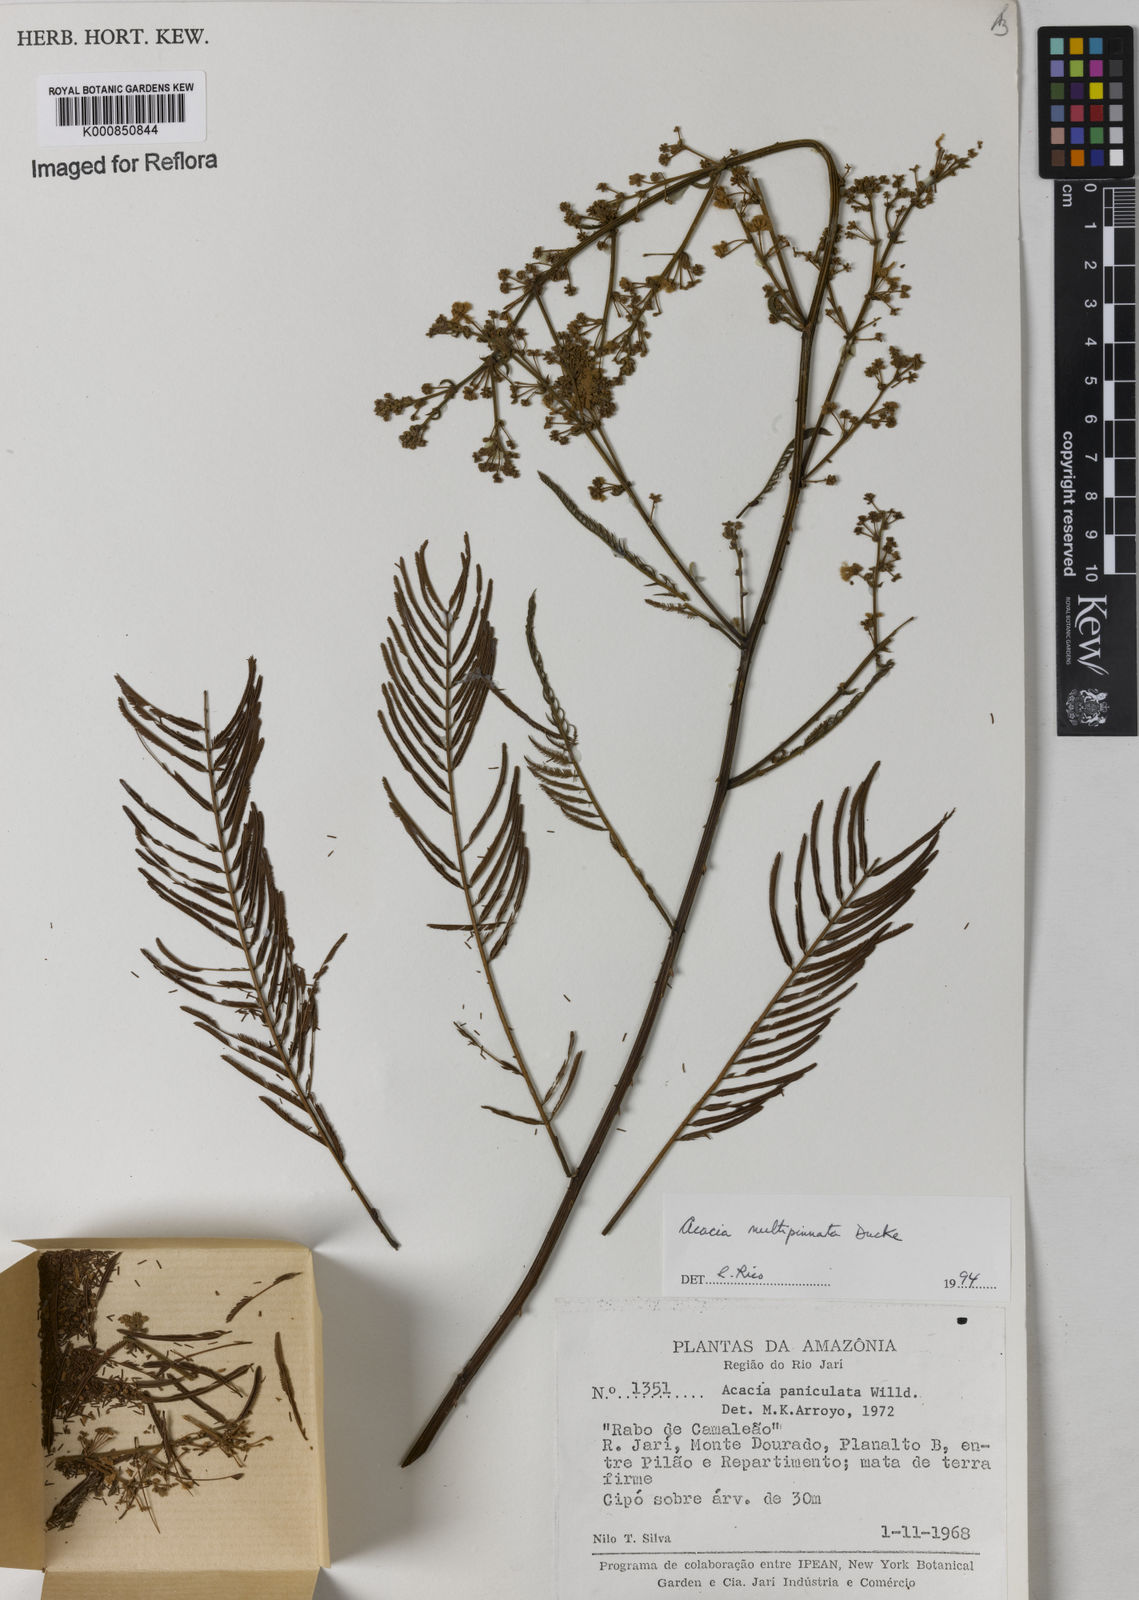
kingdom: Plantae
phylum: Tracheophyta
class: Magnoliopsida
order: Fabales
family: Fabaceae
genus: Senegalia
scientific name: Senegalia paniculata
